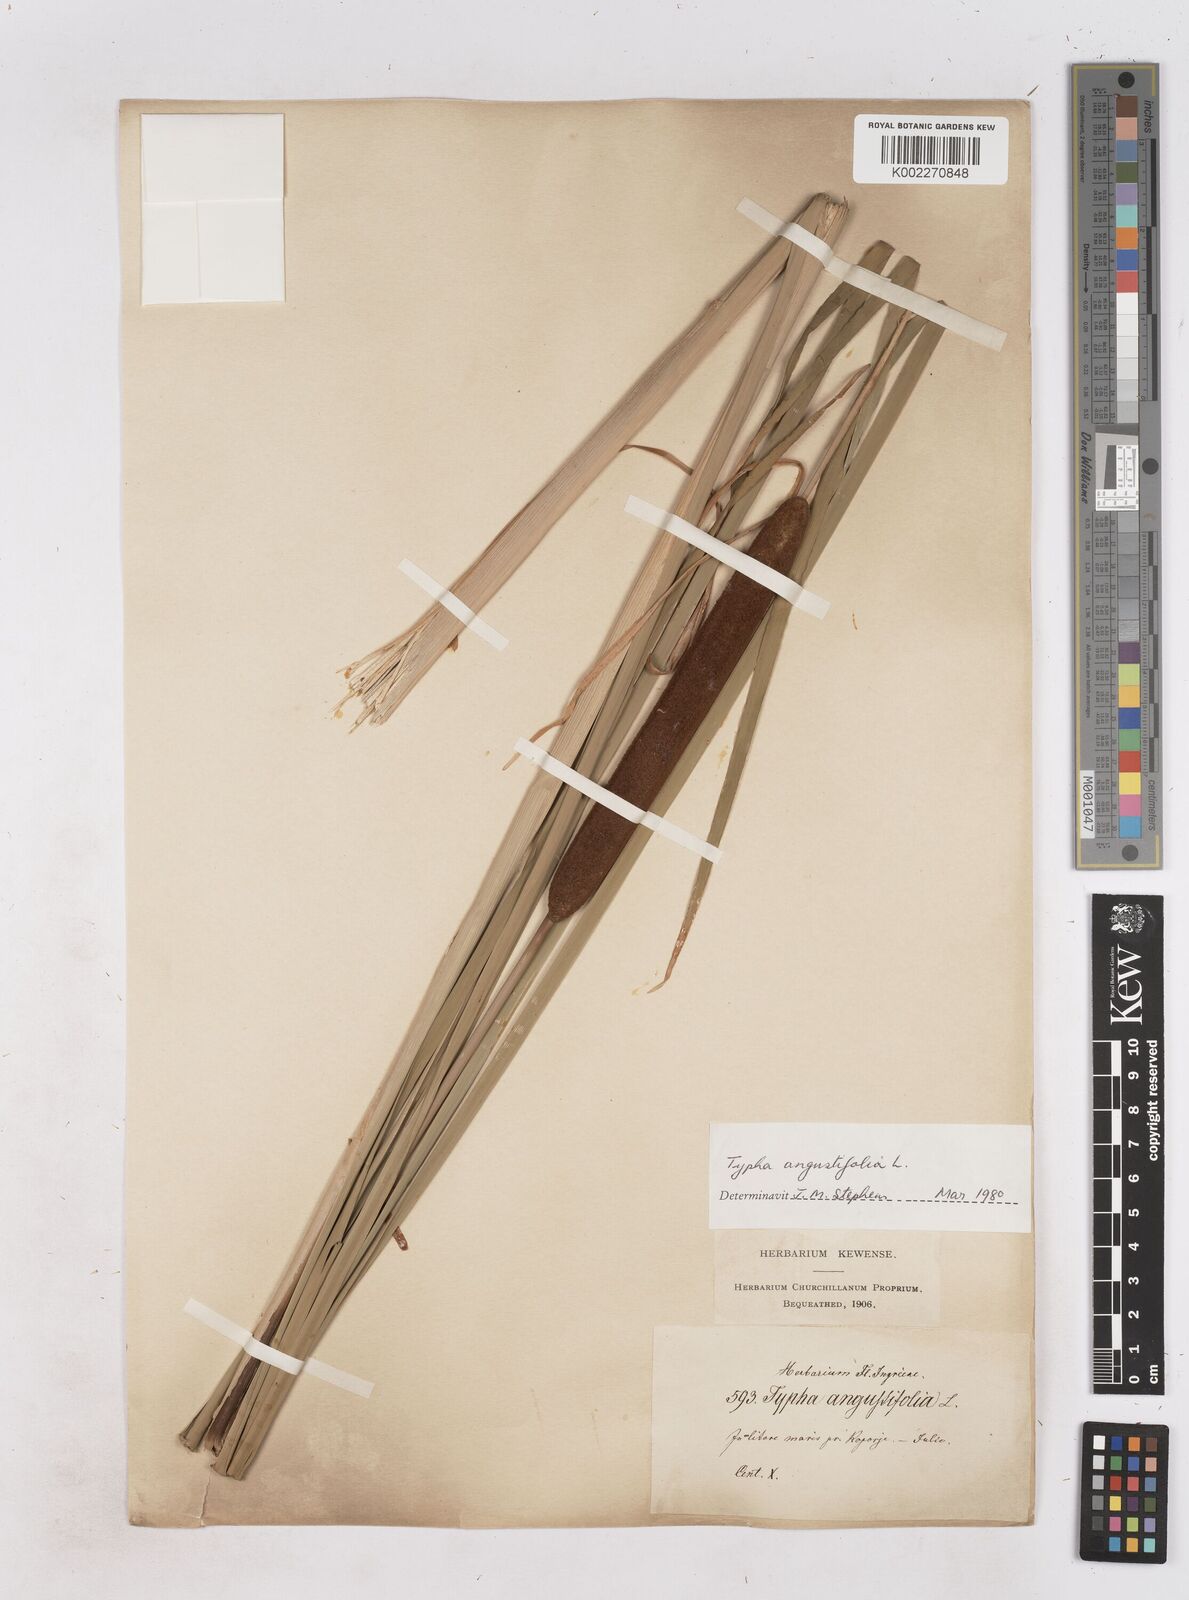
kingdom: Plantae
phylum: Tracheophyta
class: Liliopsida
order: Poales
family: Typhaceae
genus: Typha
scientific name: Typha angustifolia
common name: Lesser bulrush
